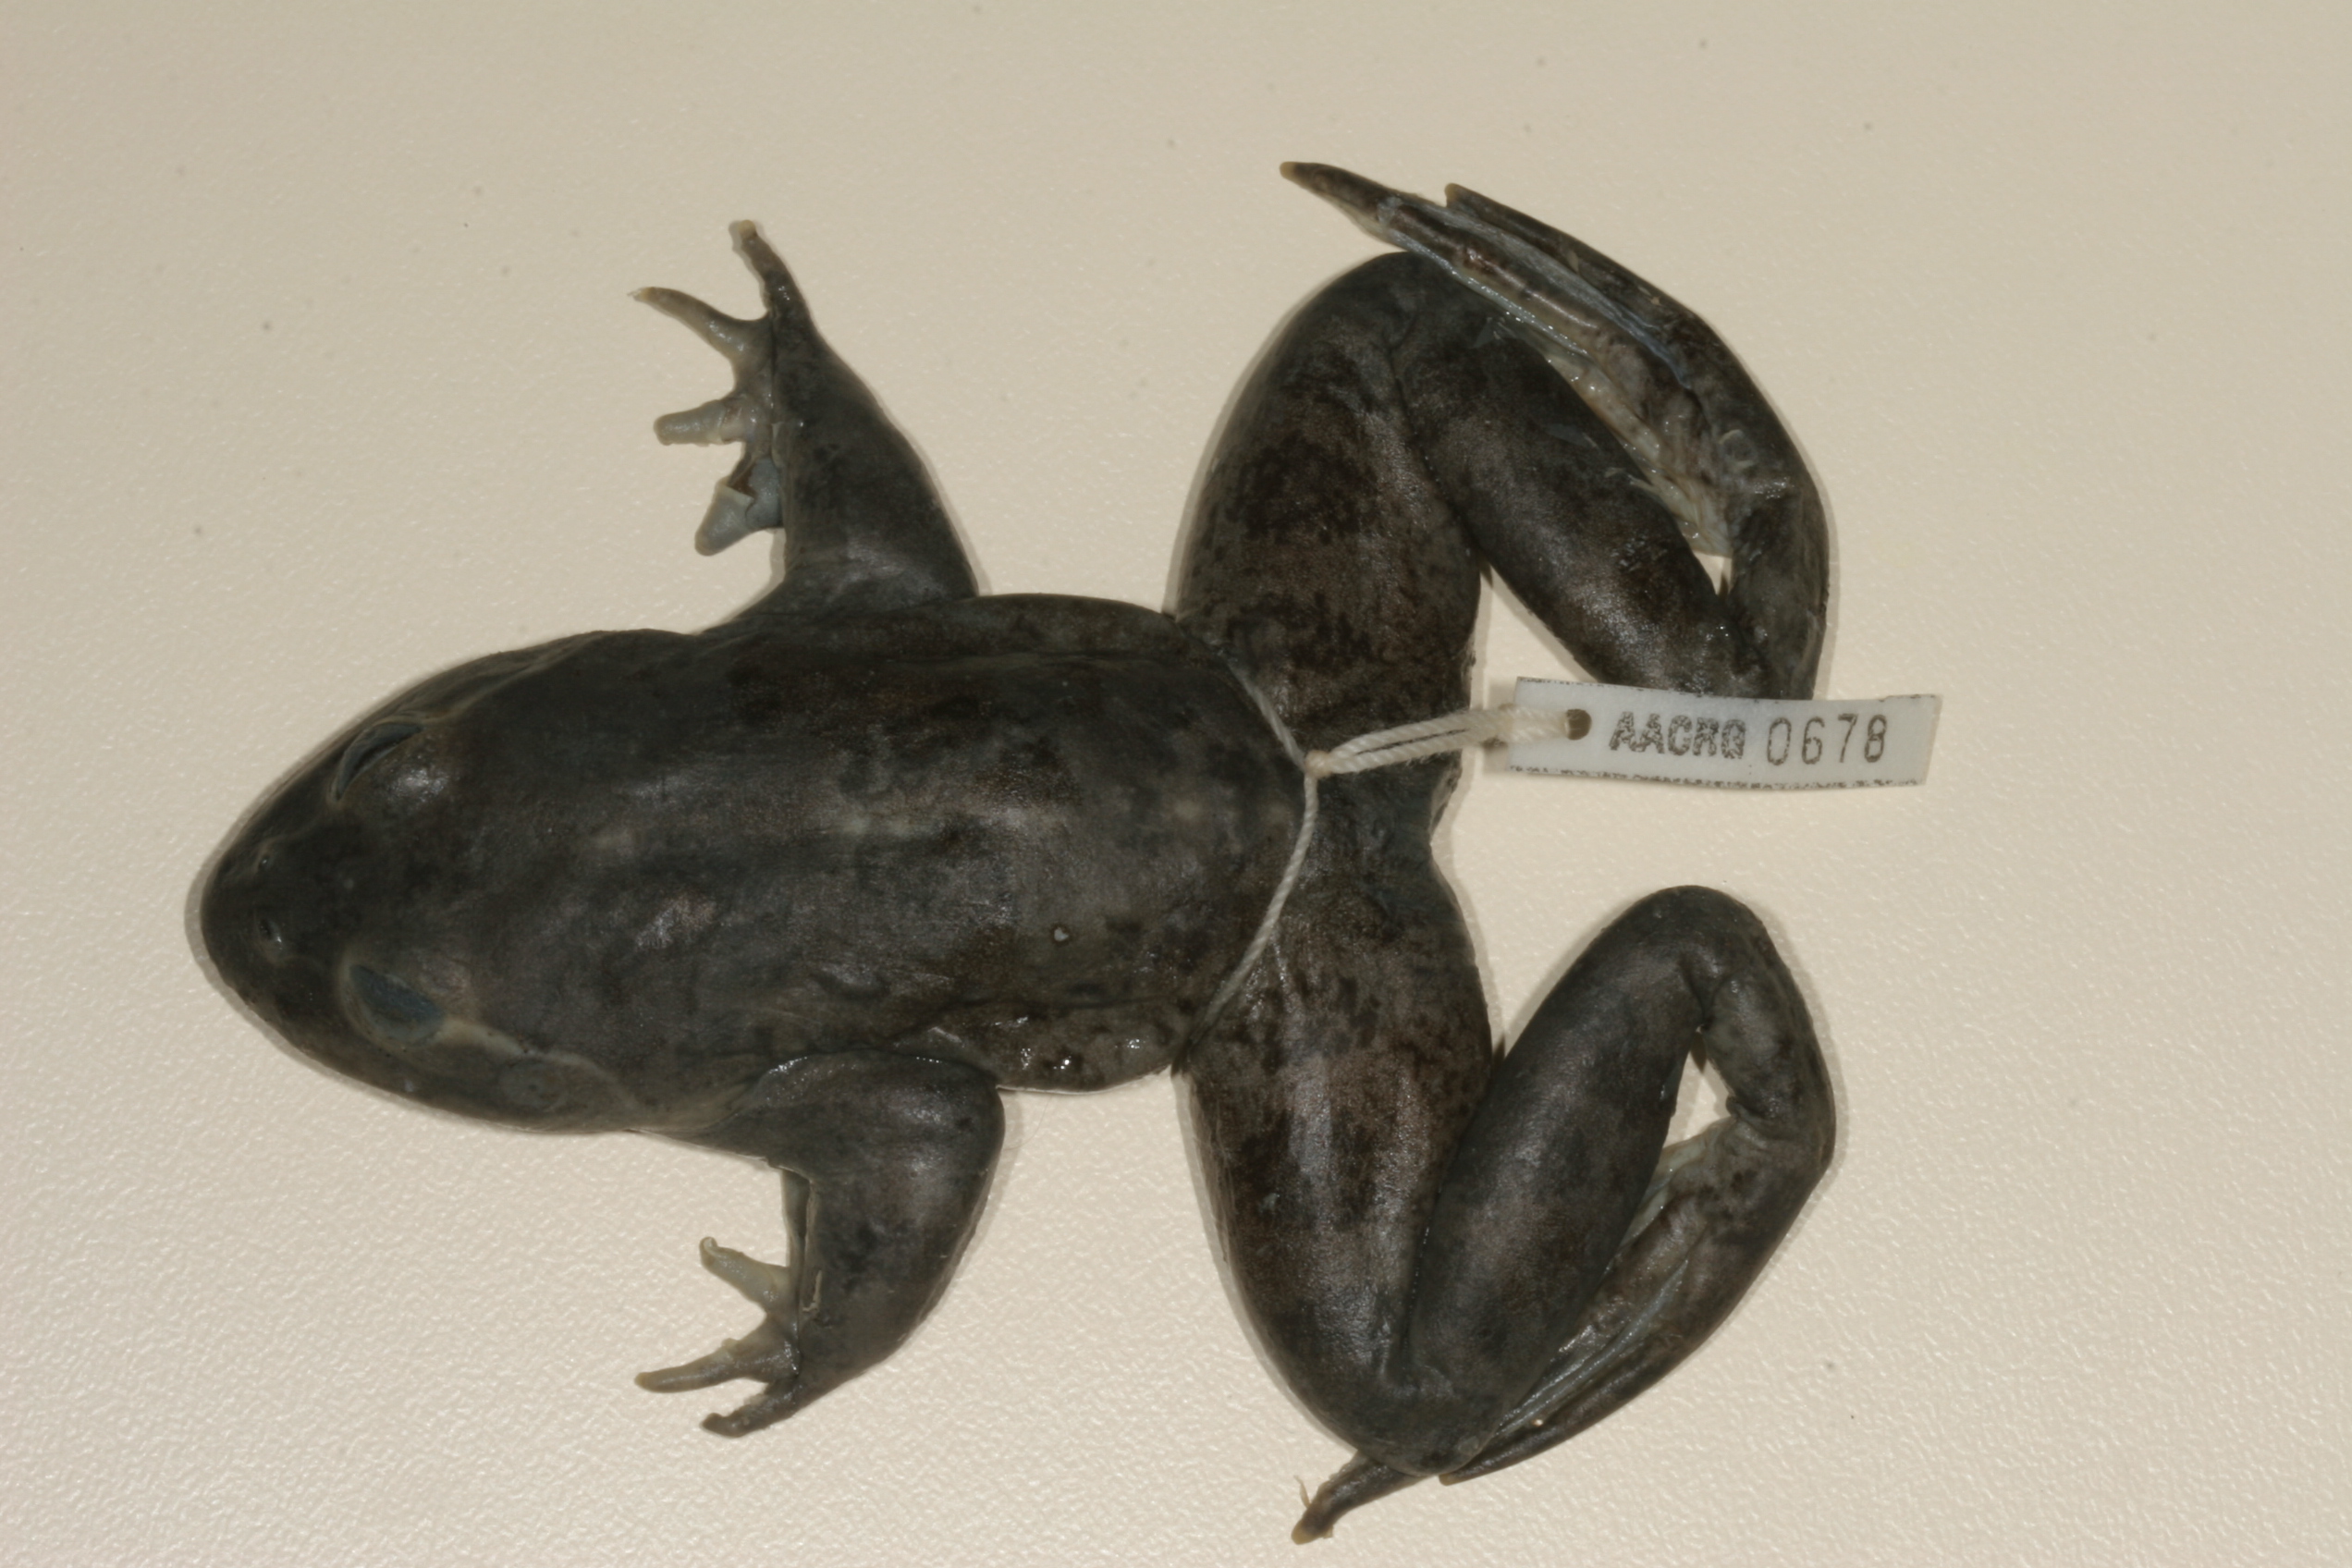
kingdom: Animalia
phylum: Chordata
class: Amphibia
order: Anura
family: Pyxicephalidae
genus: Amietia
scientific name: Amietia vertebralis
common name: Drakensberg stream frog
